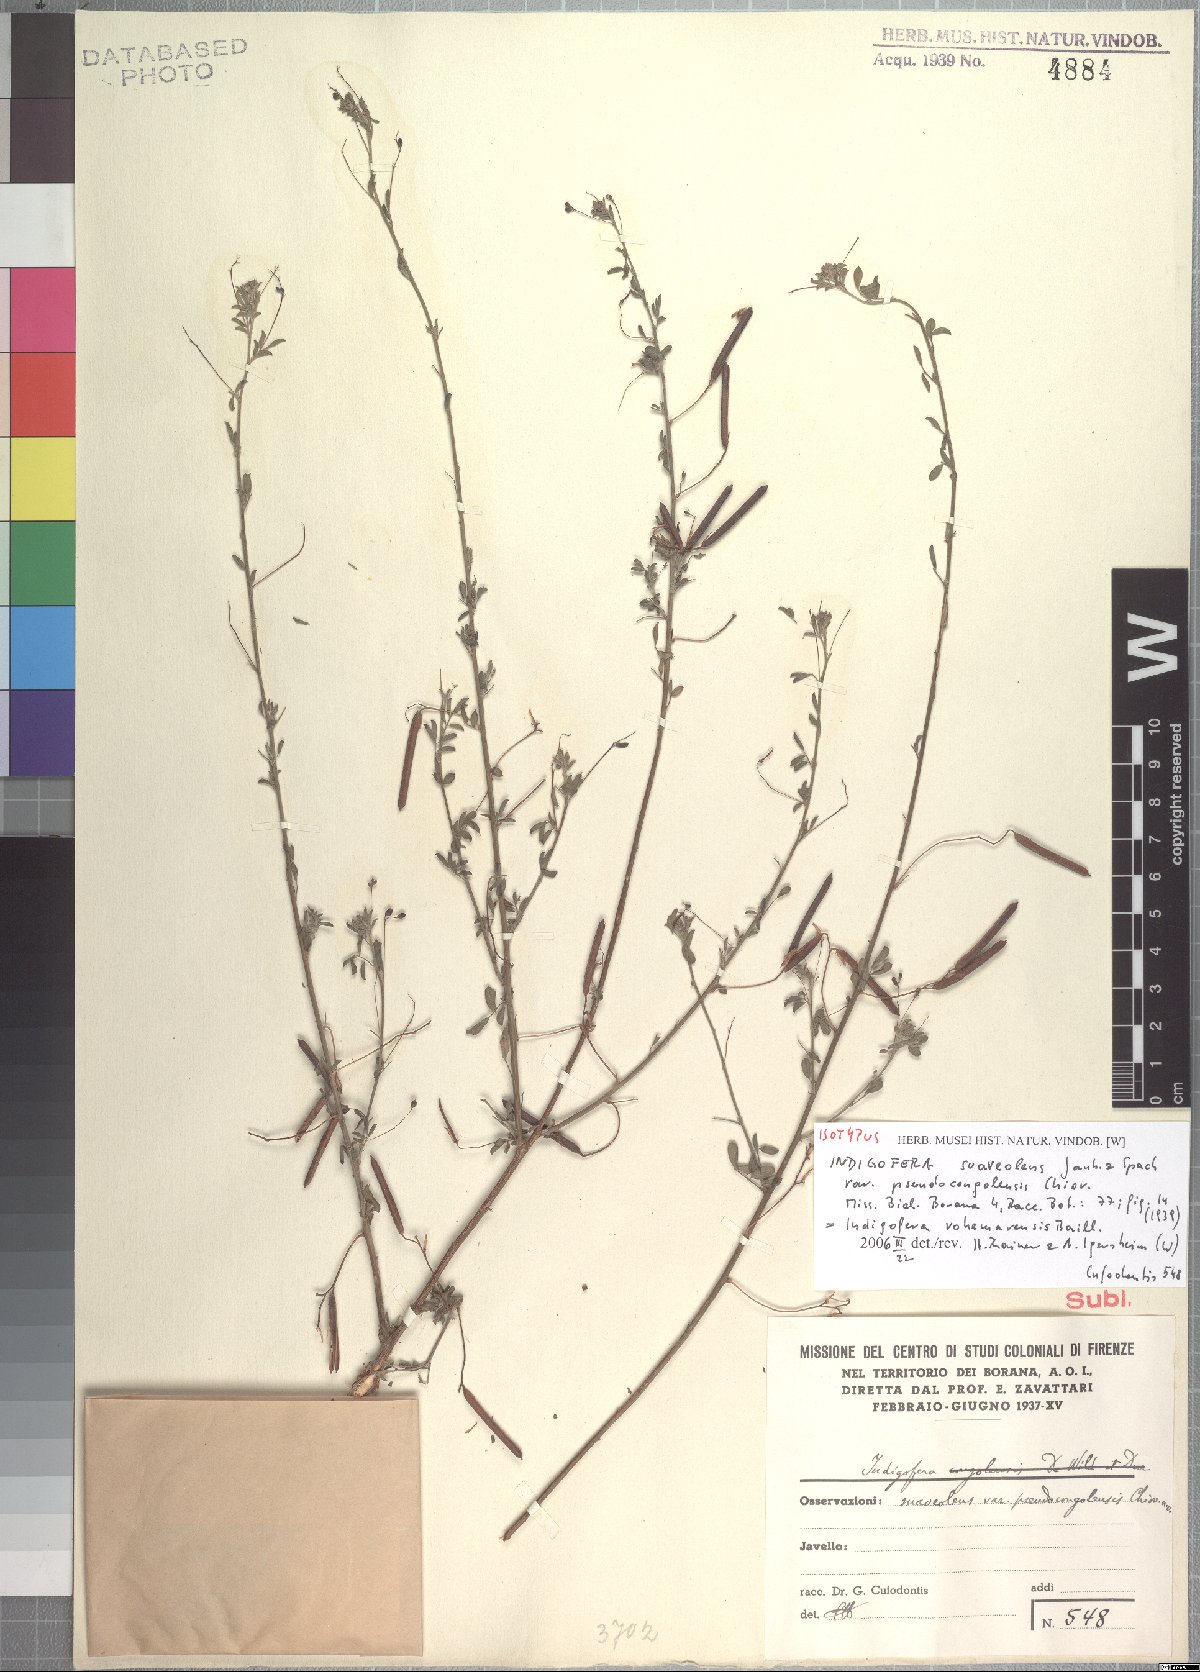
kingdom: Plantae
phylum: Tracheophyta
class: Magnoliopsida
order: Fabales
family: Fabaceae
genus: Indigofera
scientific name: Indigofera vohemarensis
